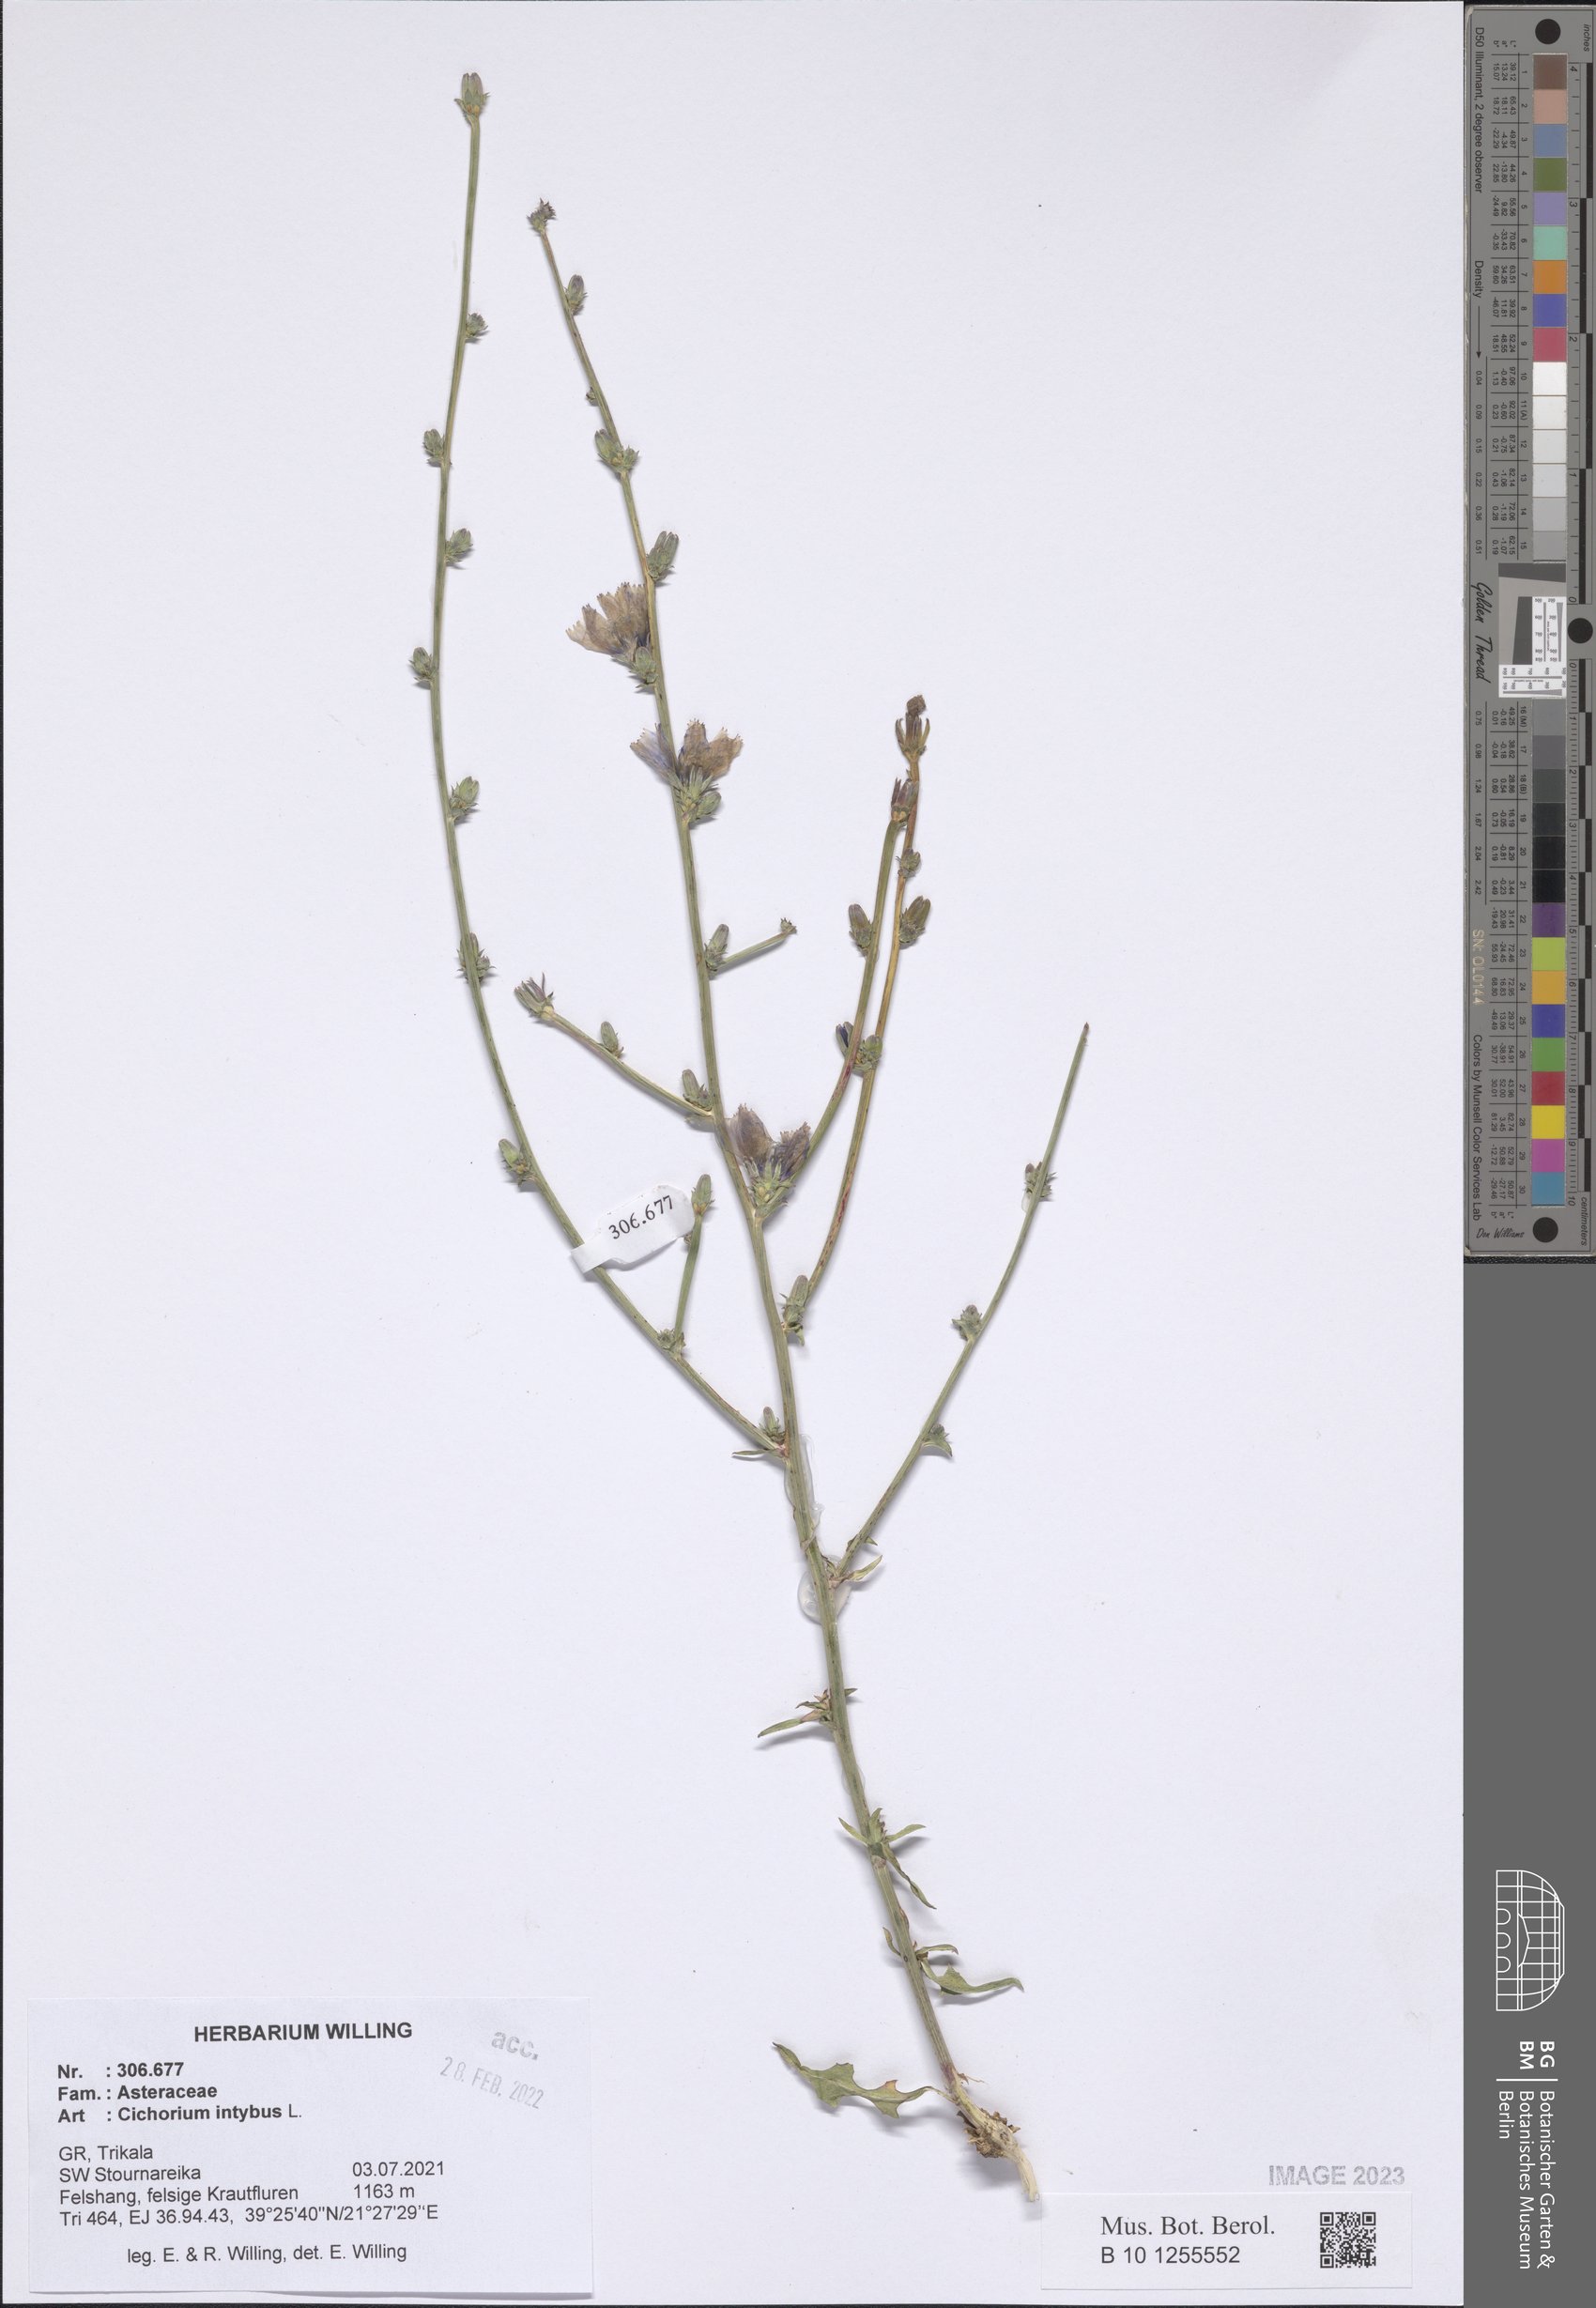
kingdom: Plantae
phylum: Tracheophyta
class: Magnoliopsida
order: Asterales
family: Asteraceae
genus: Cichorium
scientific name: Cichorium intybus
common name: Chicory
